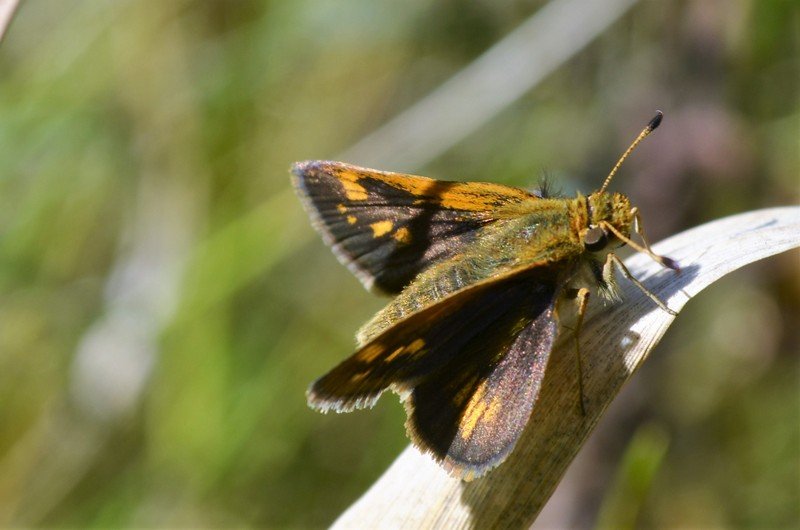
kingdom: Animalia
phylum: Arthropoda
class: Insecta
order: Lepidoptera
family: Hesperiidae
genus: Polites
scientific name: Polites coras
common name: Peck's Skipper
